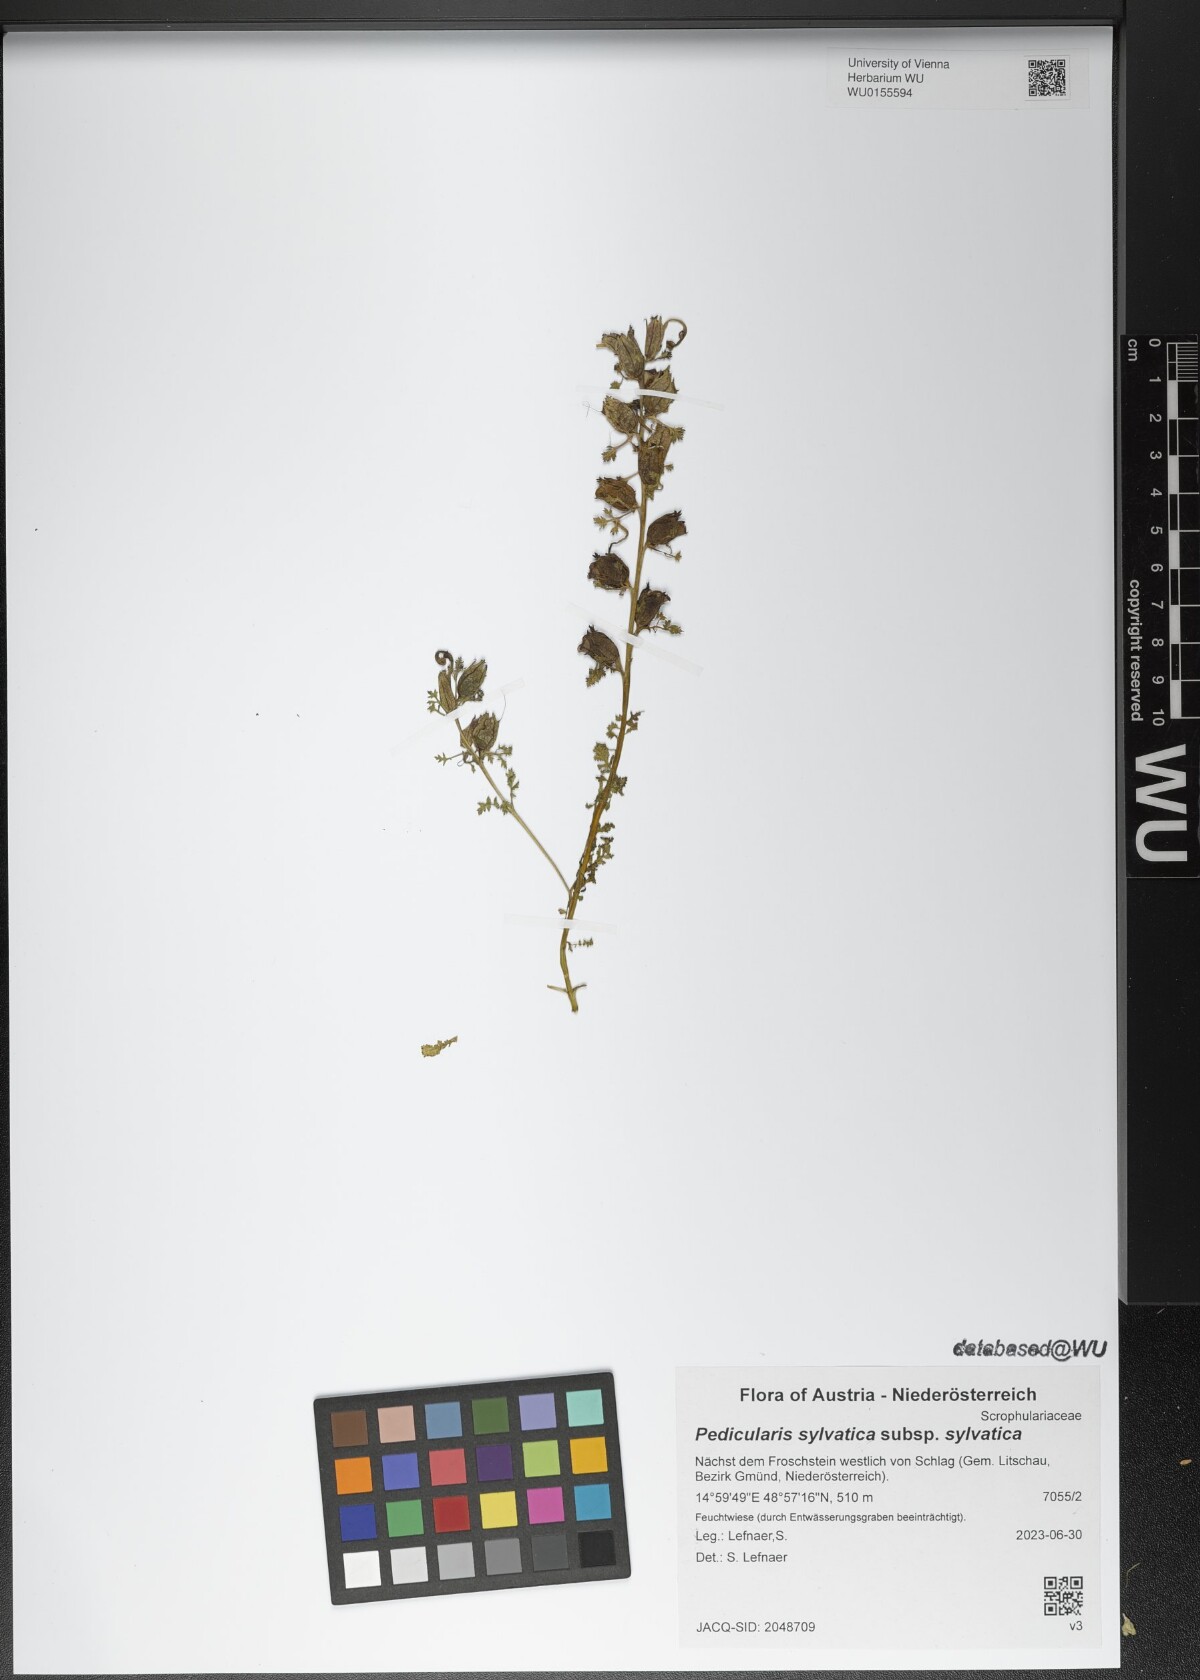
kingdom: Plantae
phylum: Tracheophyta
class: Magnoliopsida
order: Lamiales
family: Orobanchaceae
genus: Pedicularis
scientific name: Pedicularis sylvatica
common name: Lousewort
